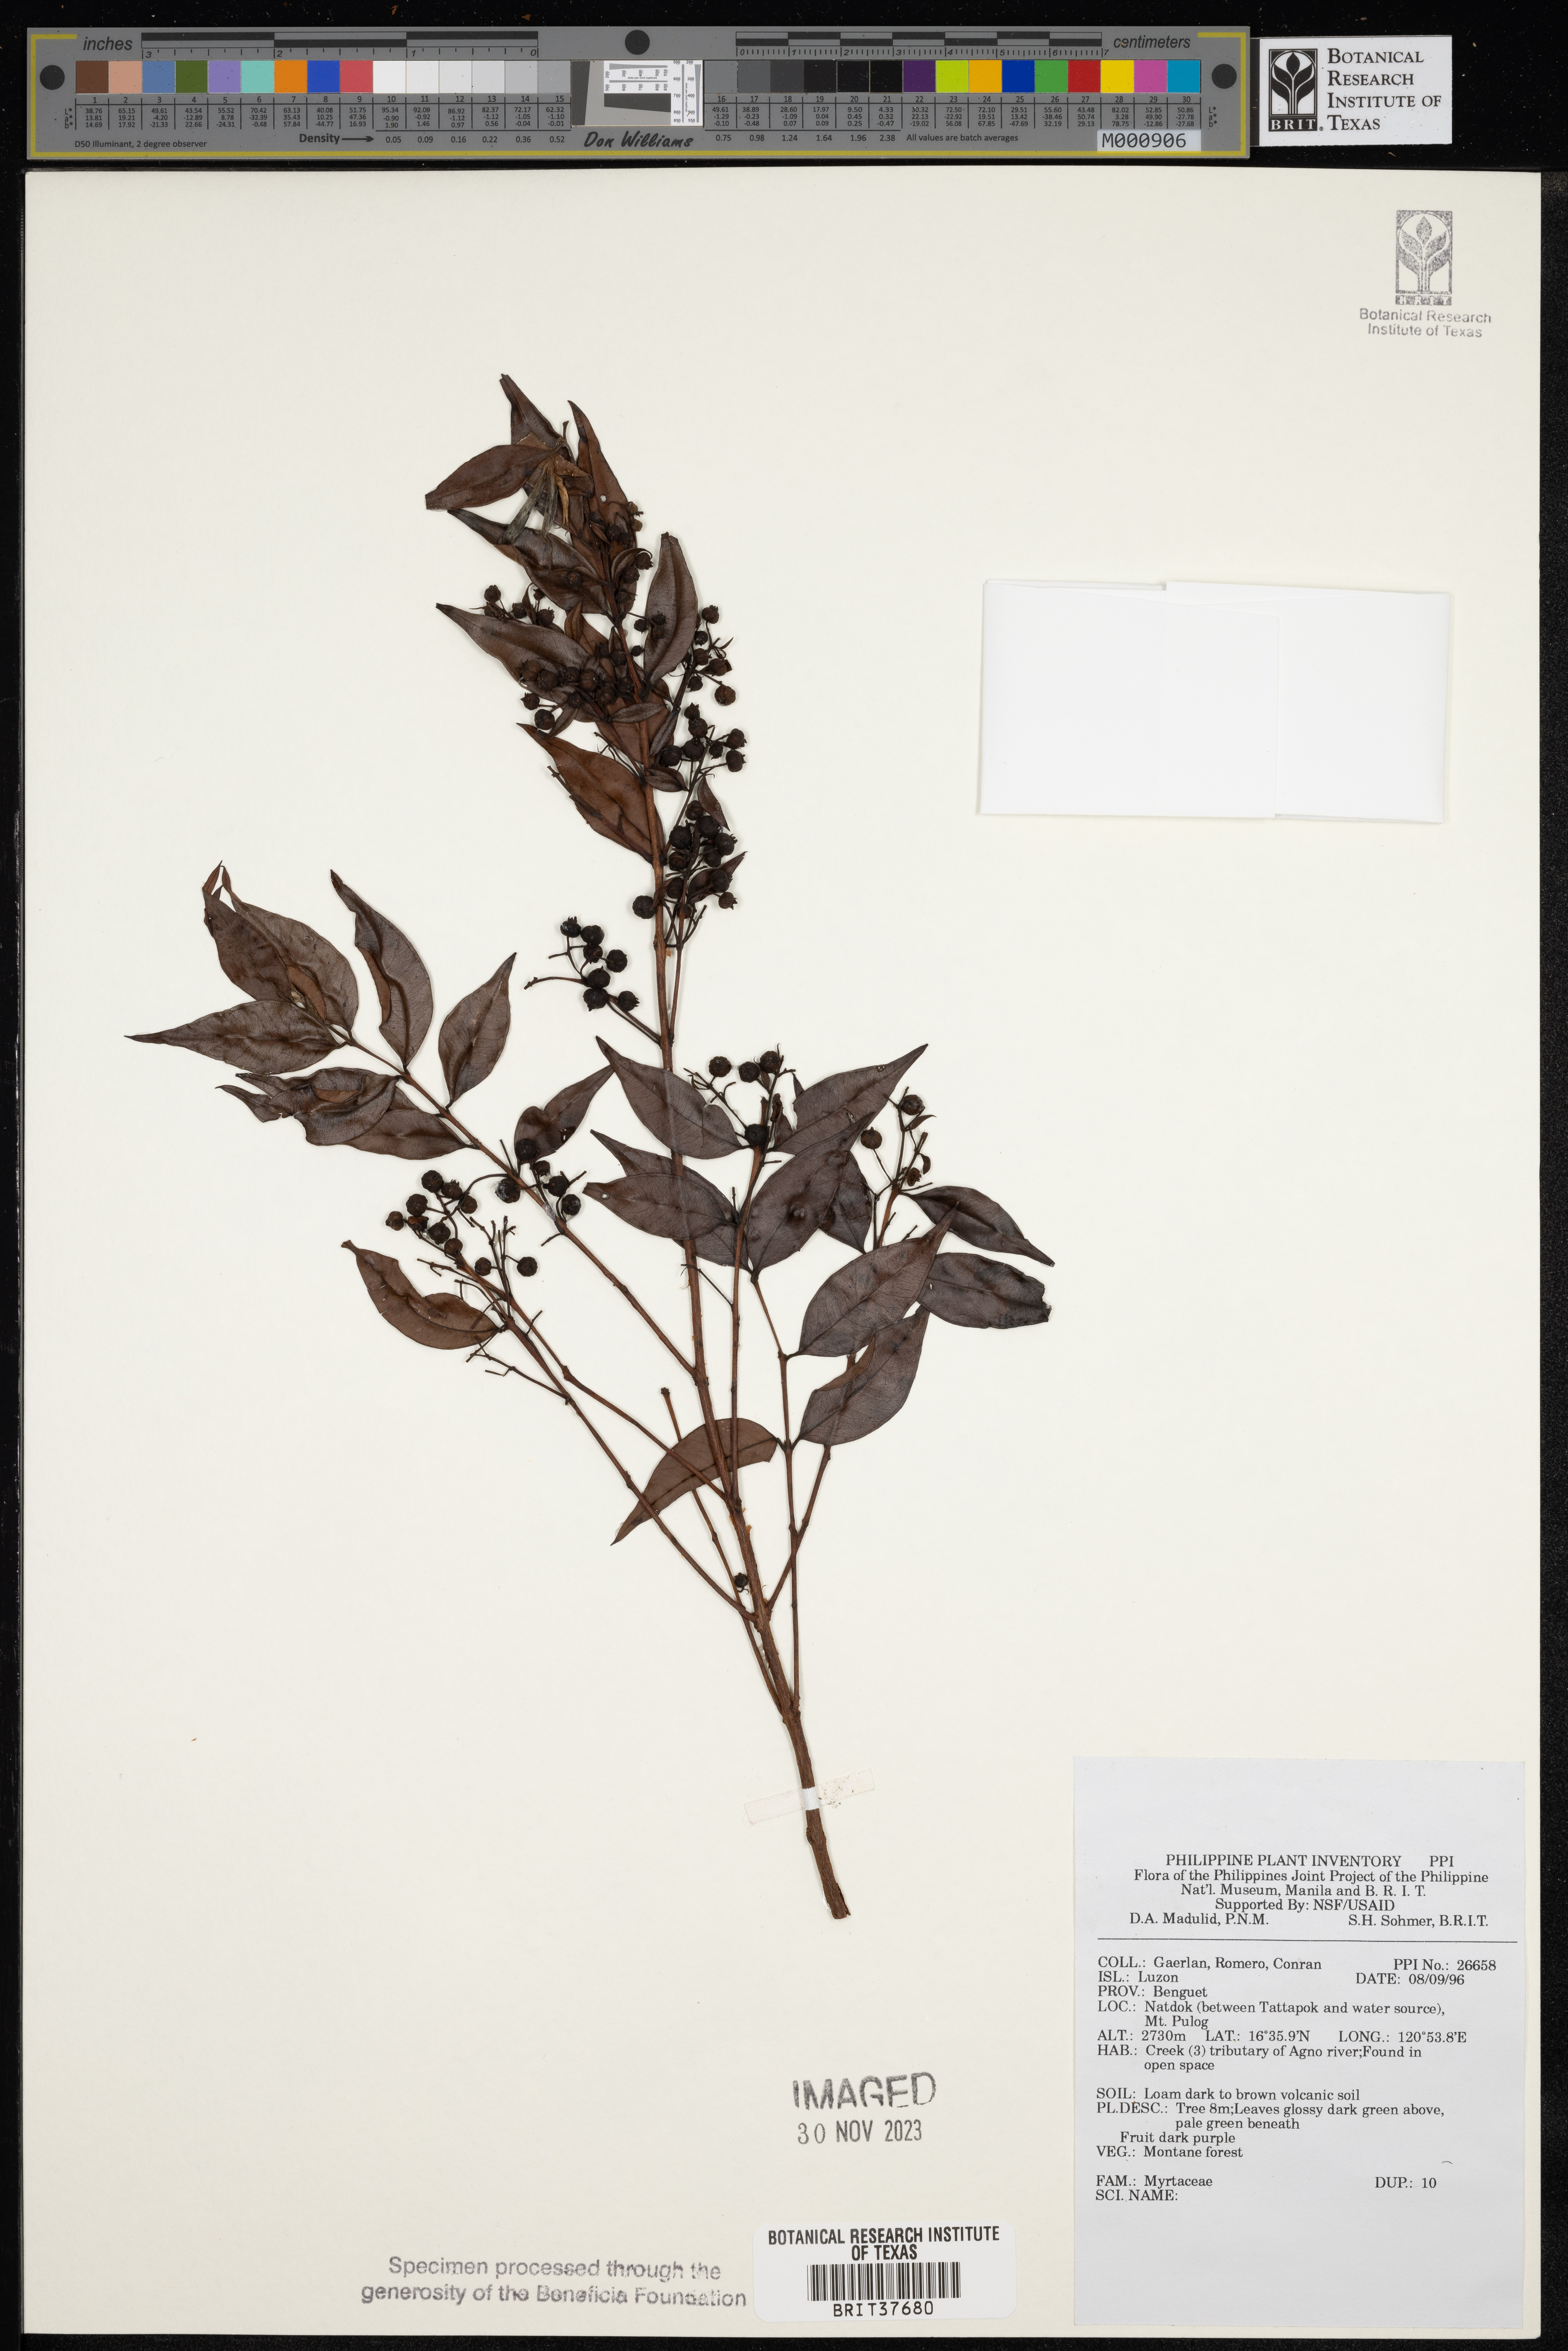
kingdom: Plantae
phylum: Tracheophyta
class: Magnoliopsida
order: Myrtales
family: Myrtaceae
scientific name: Myrtaceae
